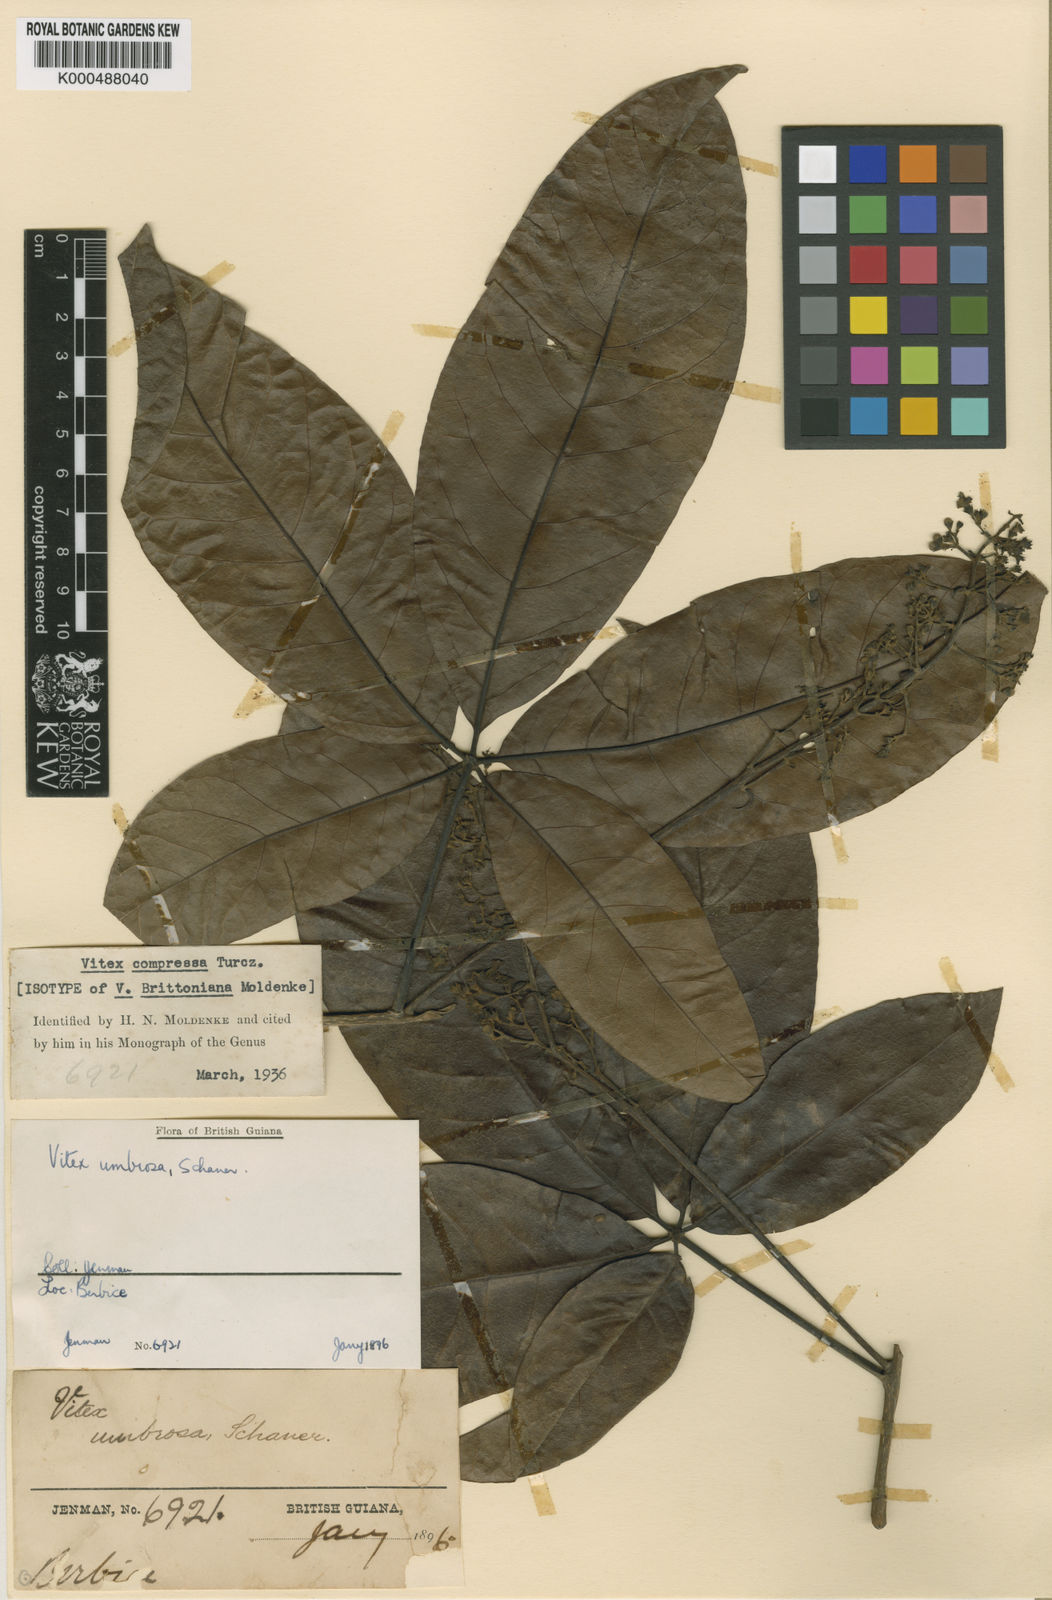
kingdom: Plantae
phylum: Tracheophyta
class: Magnoliopsida
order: Lamiales
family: Lamiaceae
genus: Vitex
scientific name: Vitex compressa
